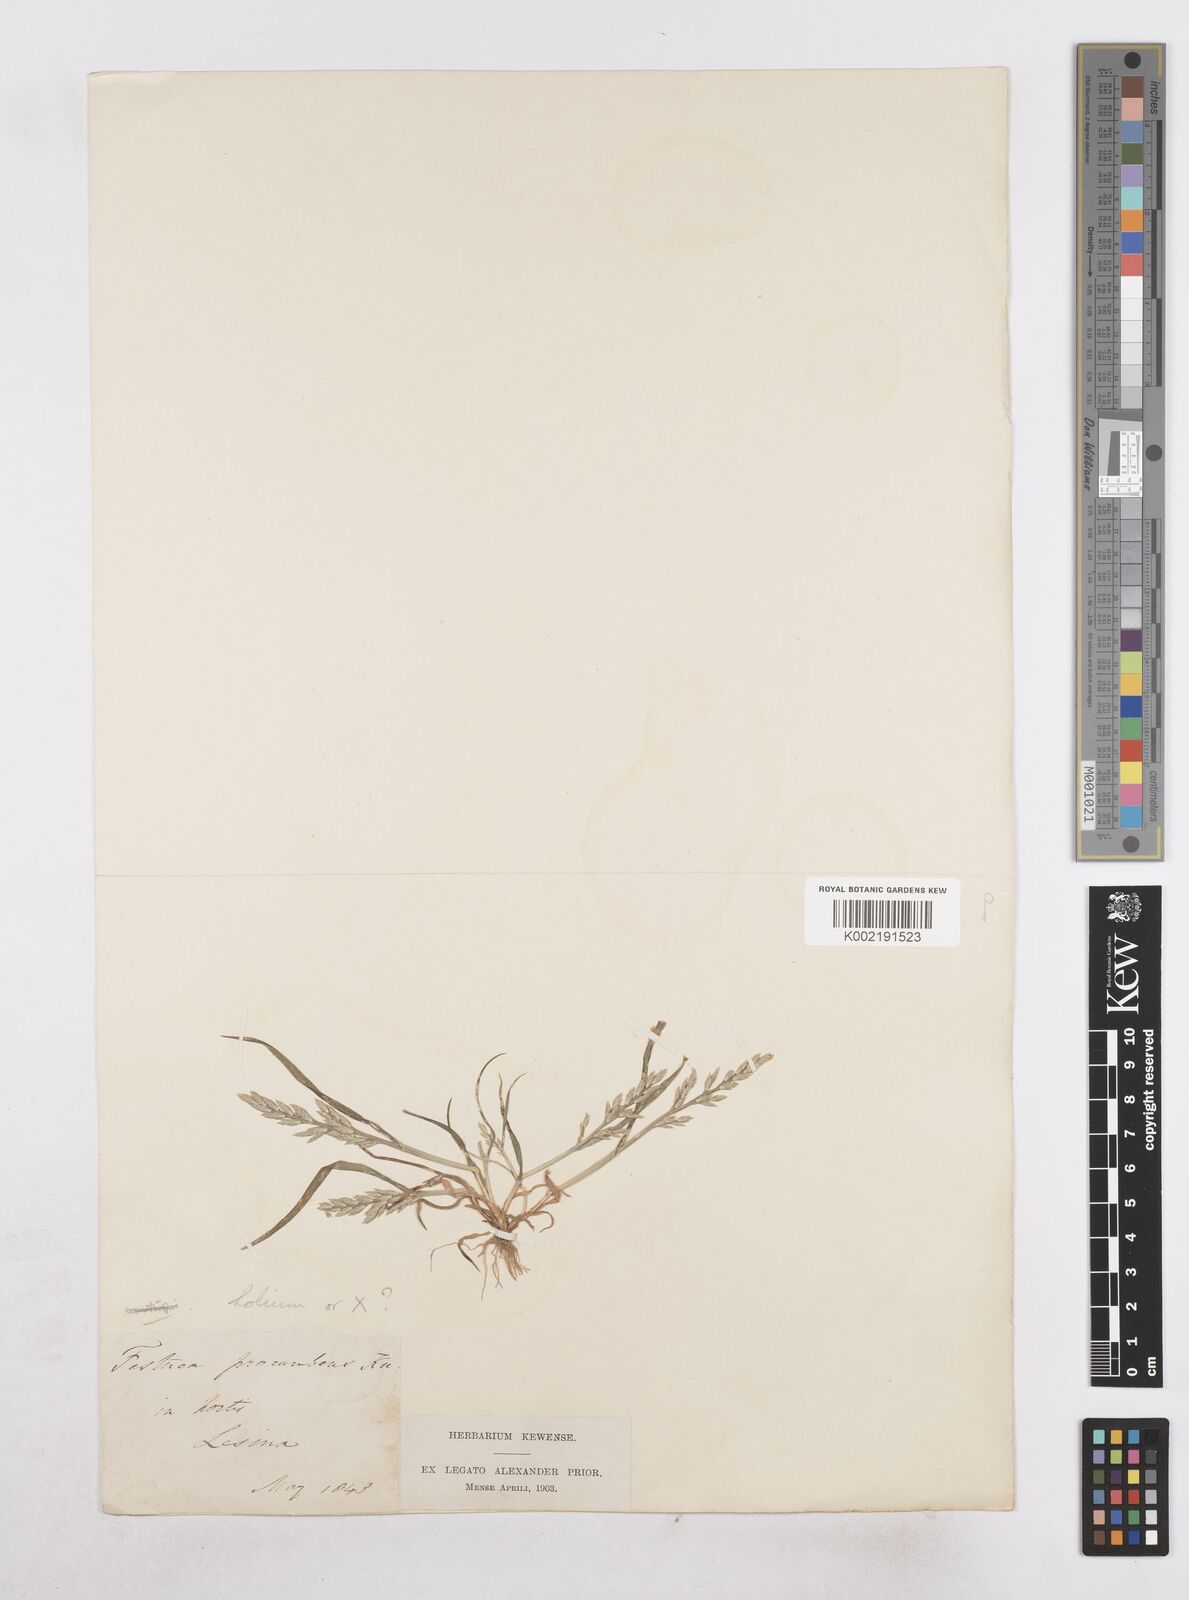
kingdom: Plantae
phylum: Tracheophyta
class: Liliopsida
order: Poales
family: Poaceae
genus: Catapodium
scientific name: Catapodium hemipoa
